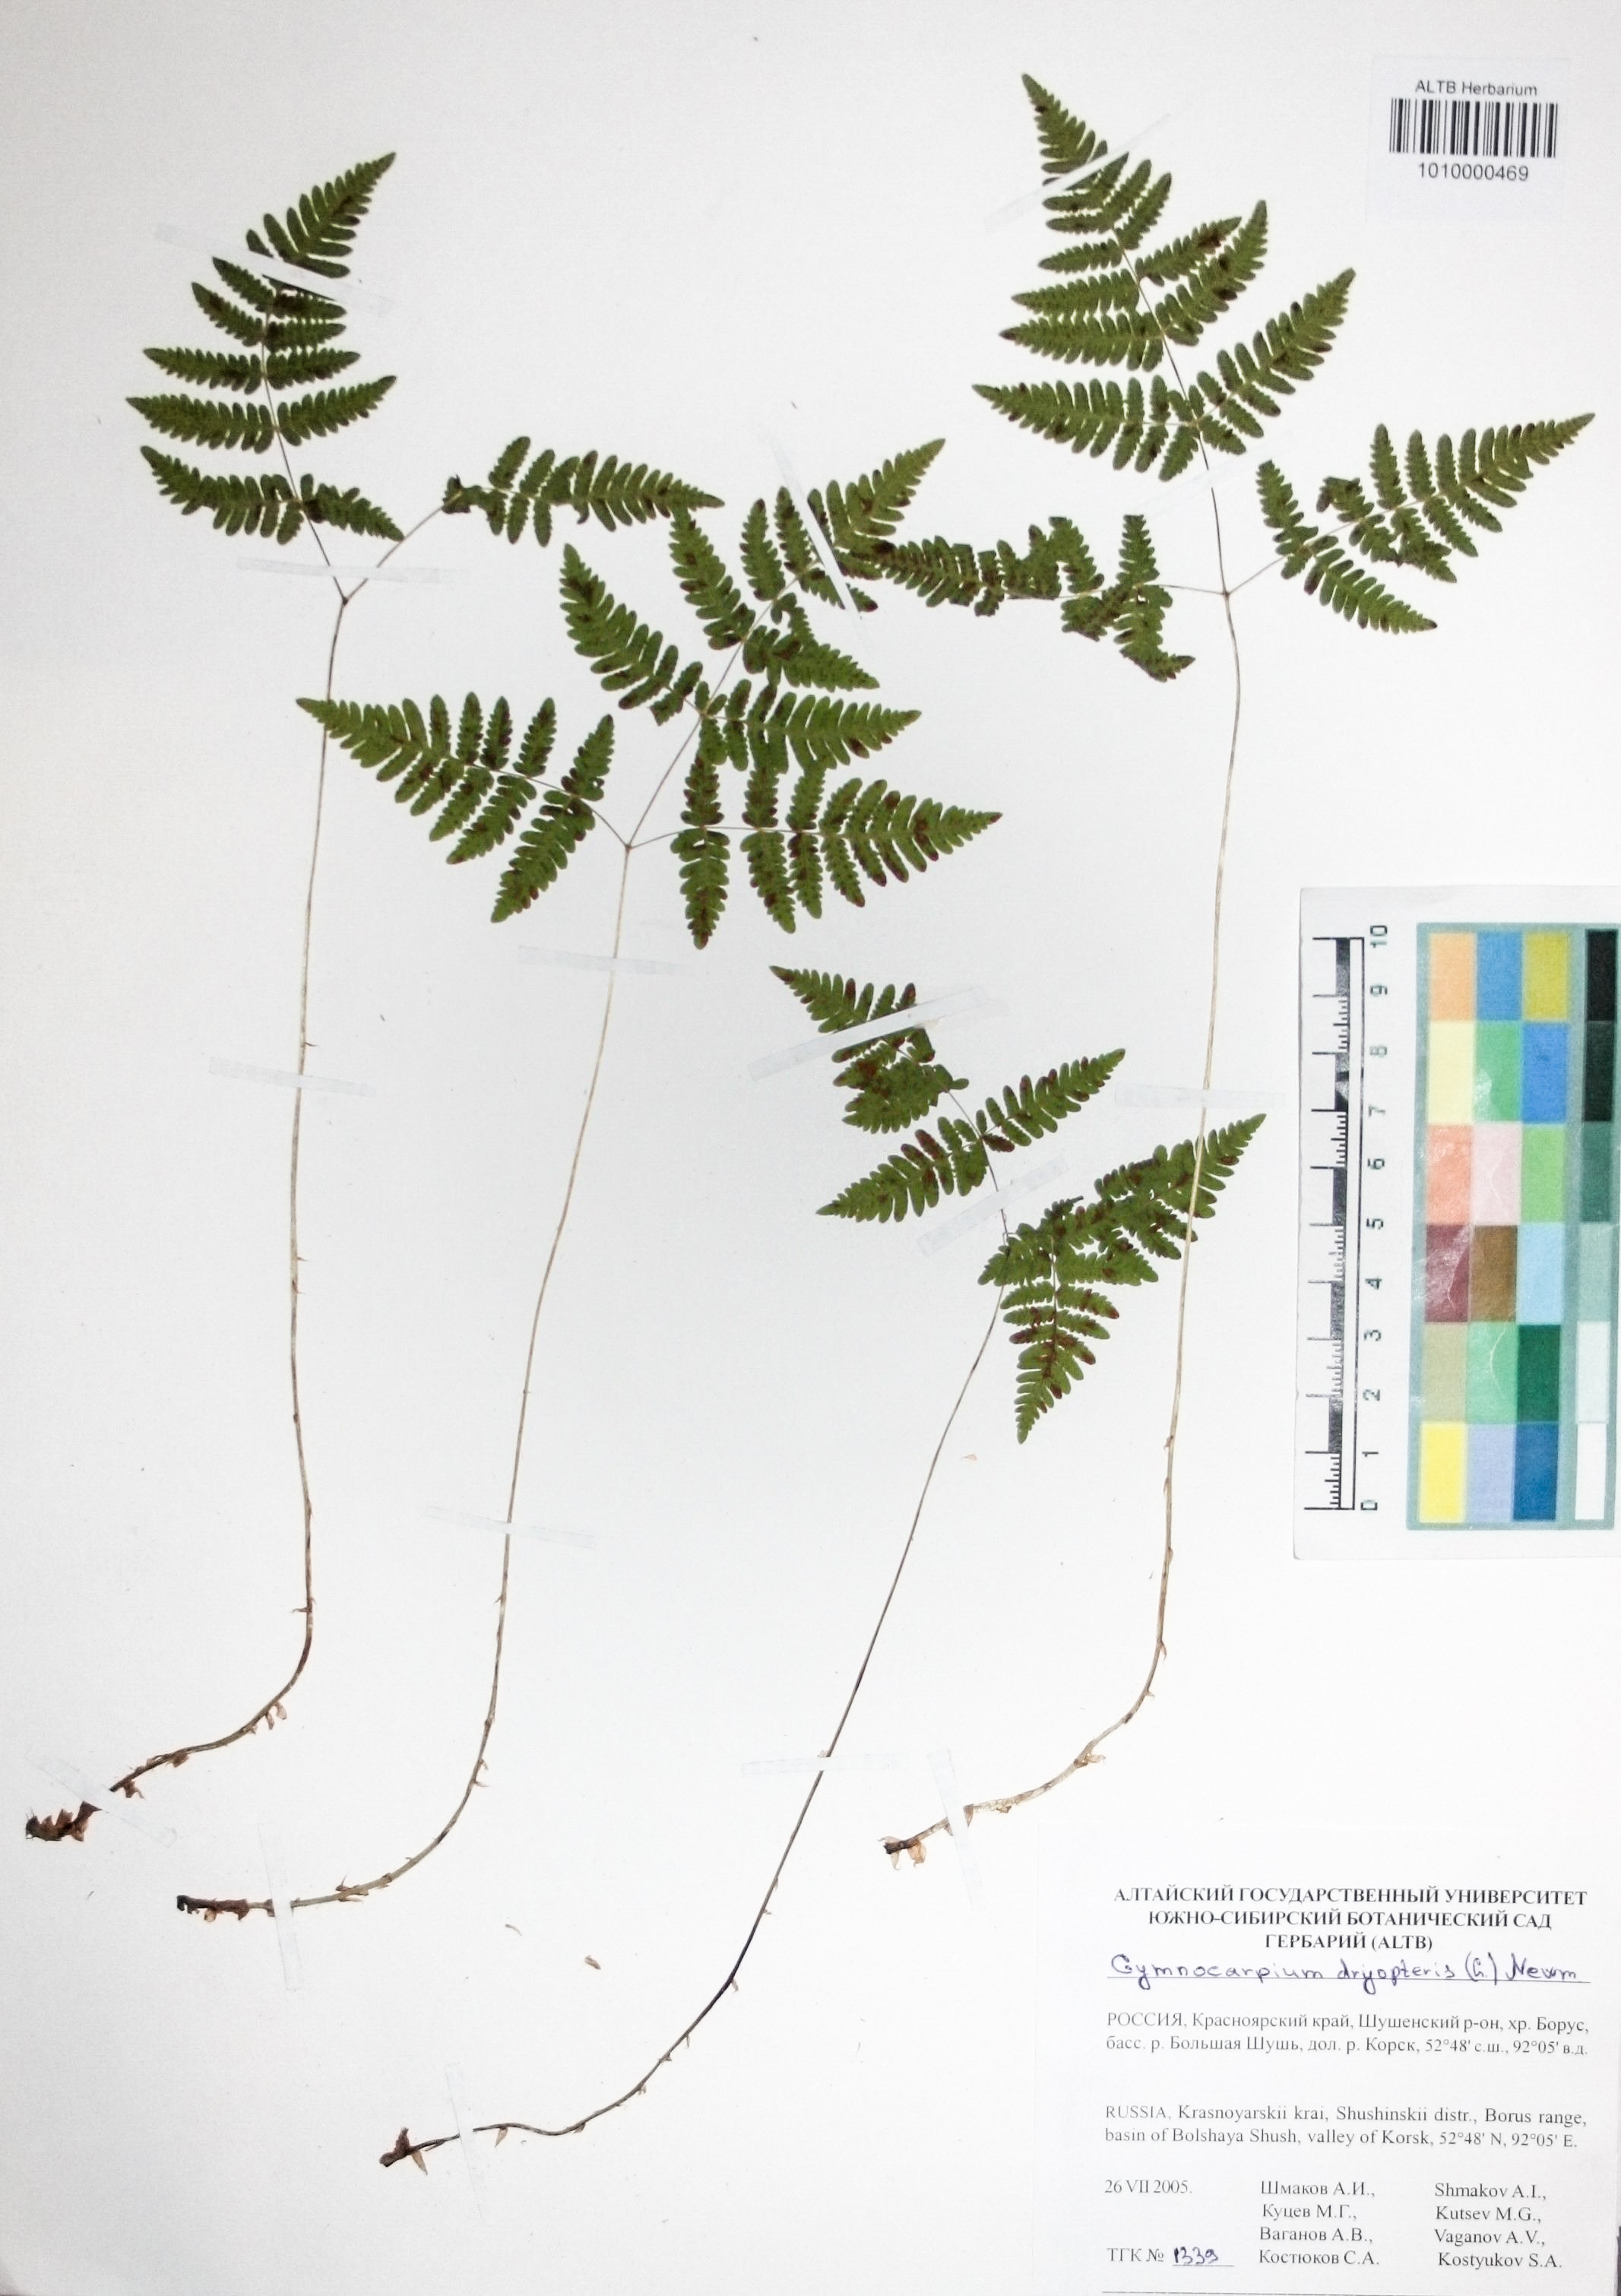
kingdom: Plantae
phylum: Tracheophyta
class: Polypodiopsida
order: Polypodiales
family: Cystopteridaceae
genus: Gymnocarpium
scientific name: Gymnocarpium dryopteris
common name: Oak fern
